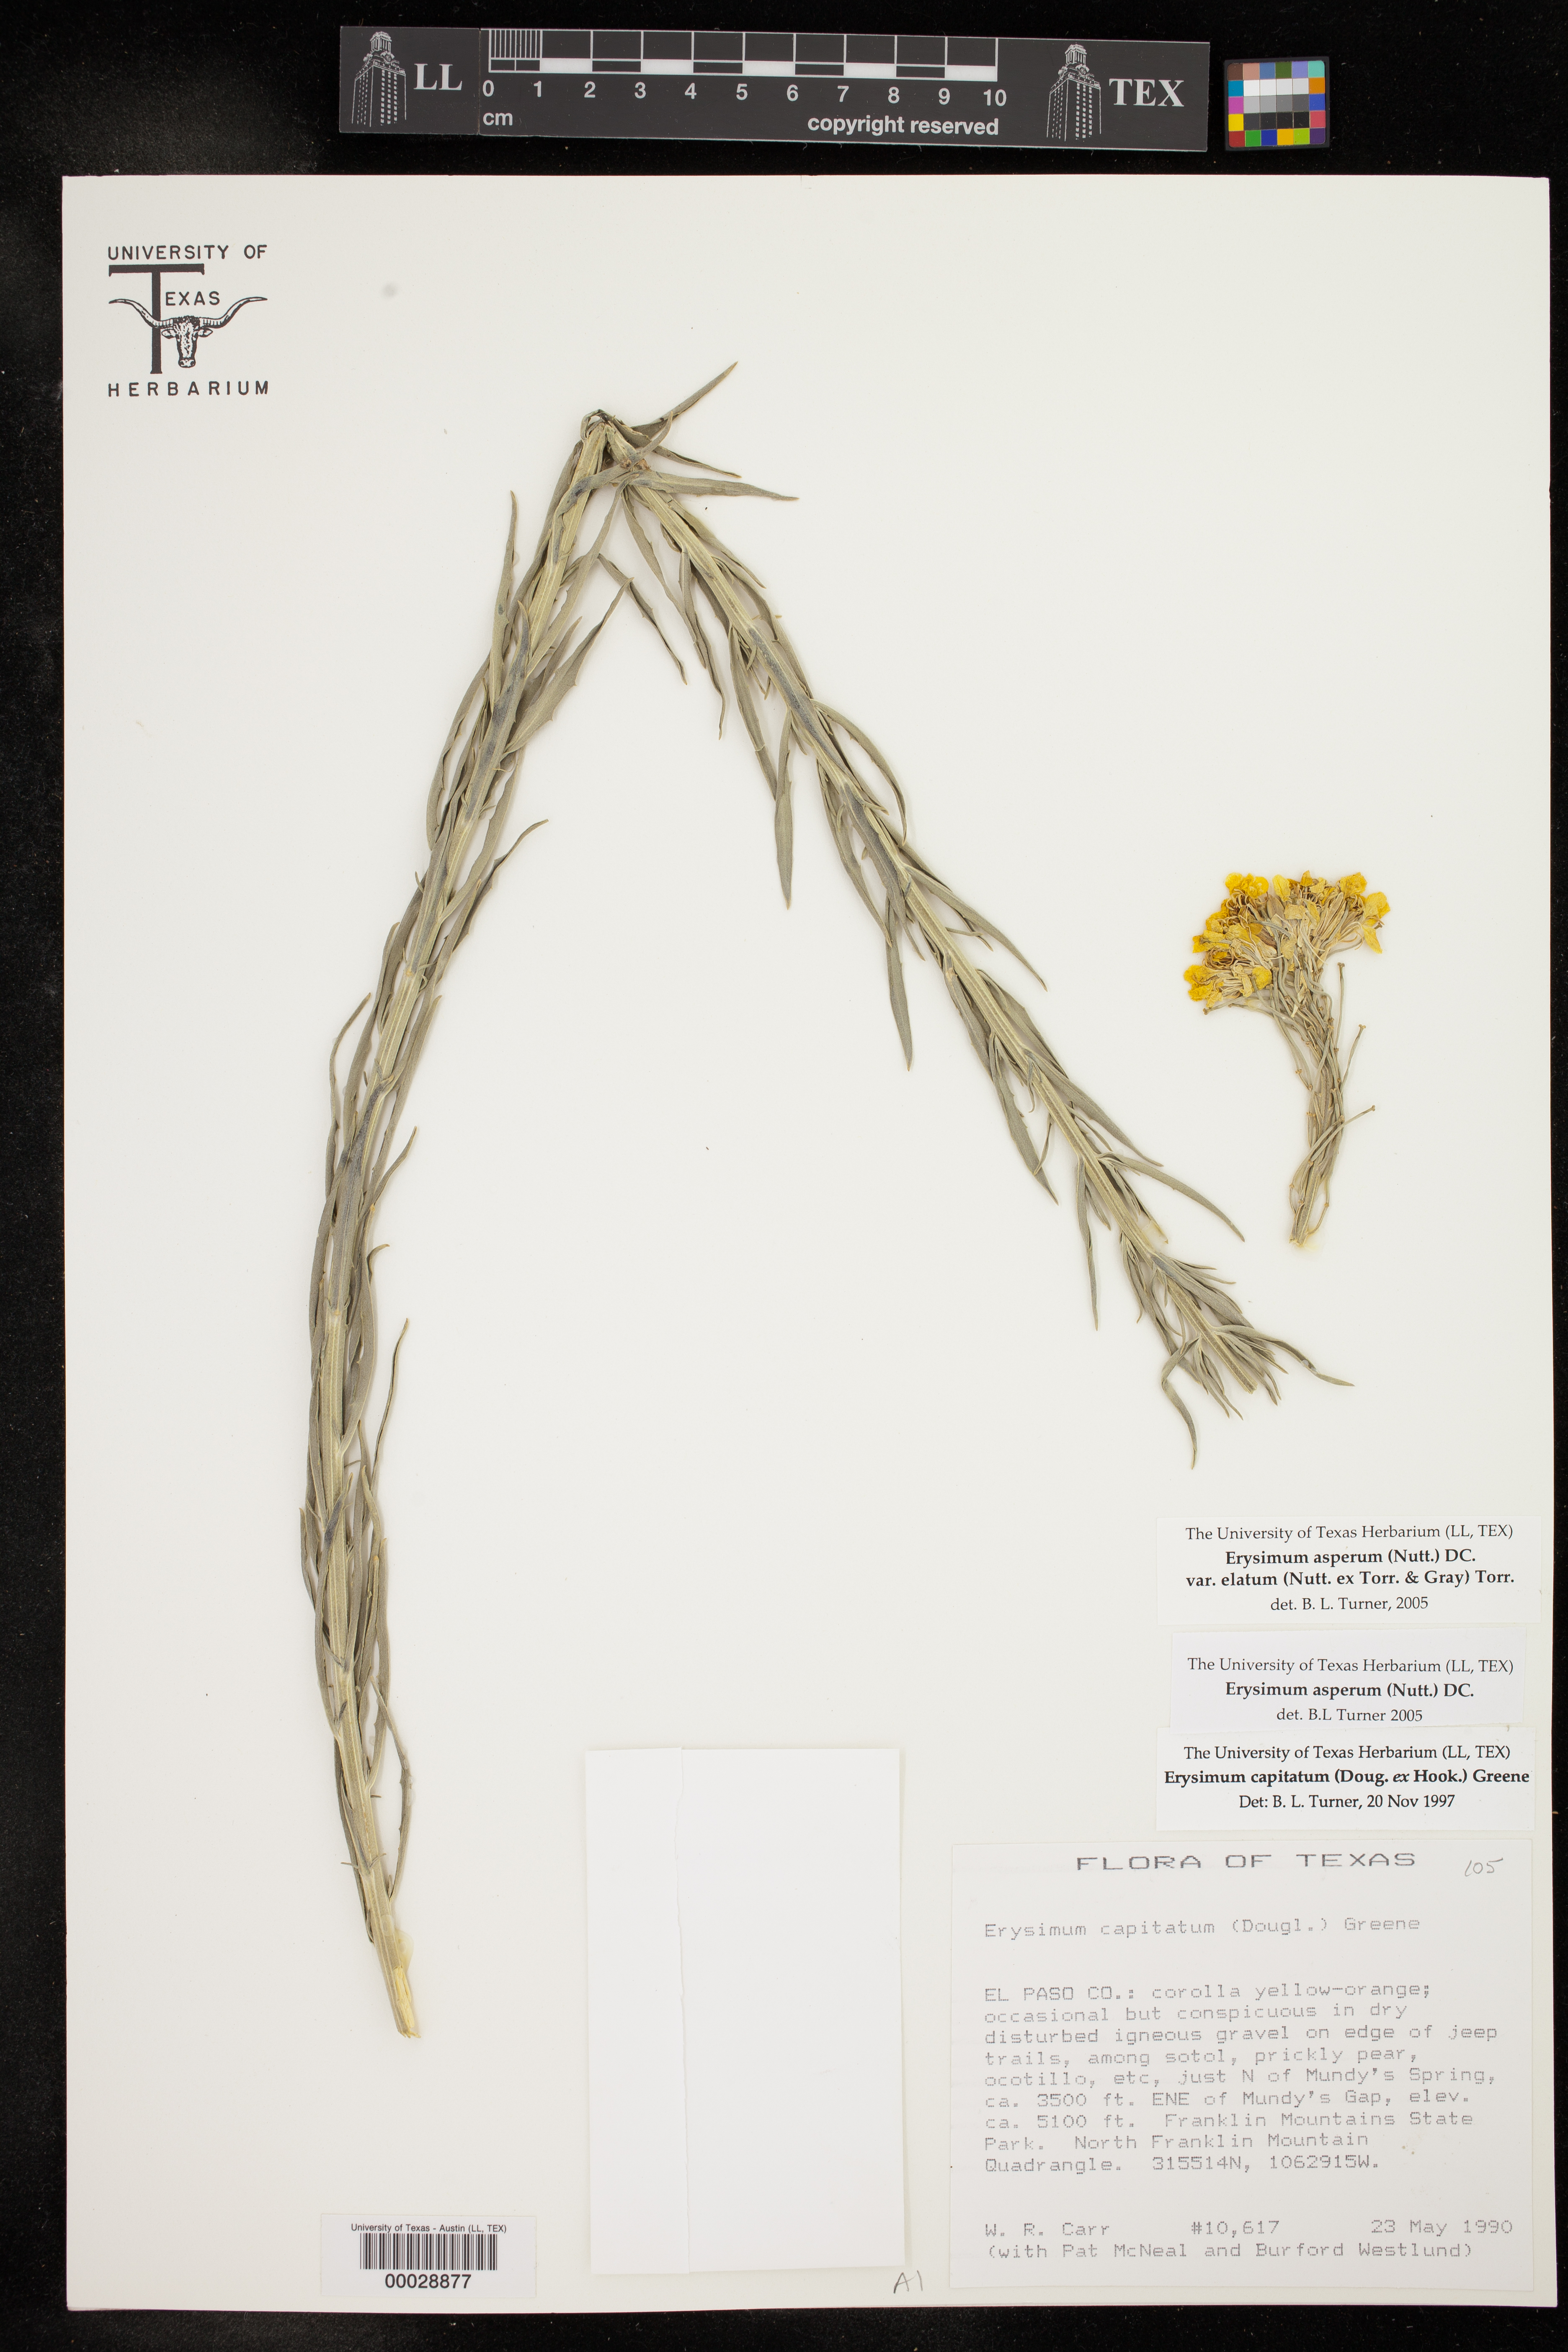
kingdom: Plantae
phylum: Tracheophyta
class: Magnoliopsida
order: Brassicales
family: Brassicaceae
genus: Erysimum
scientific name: Erysimum capitatum
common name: Western wallflower
